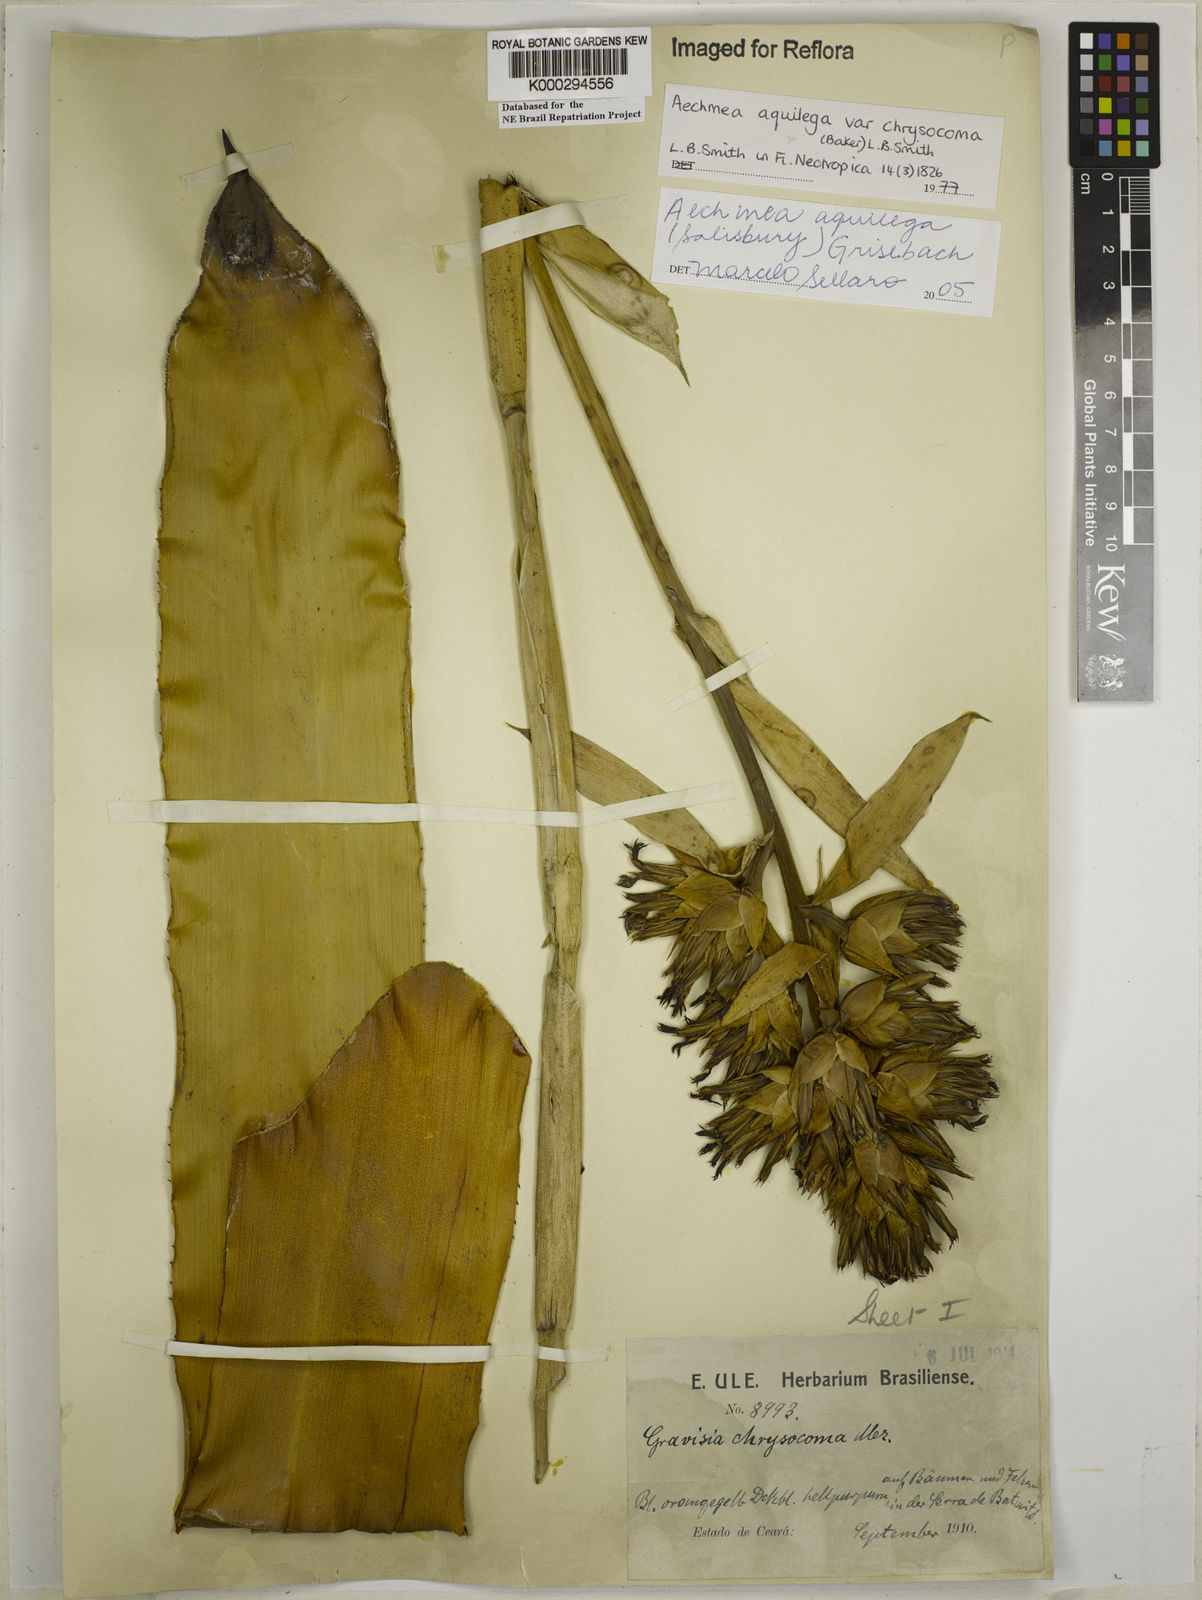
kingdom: Plantae
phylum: Tracheophyta
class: Liliopsida
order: Poales
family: Bromeliaceae
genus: Aechmea
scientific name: Aechmea aquilega
